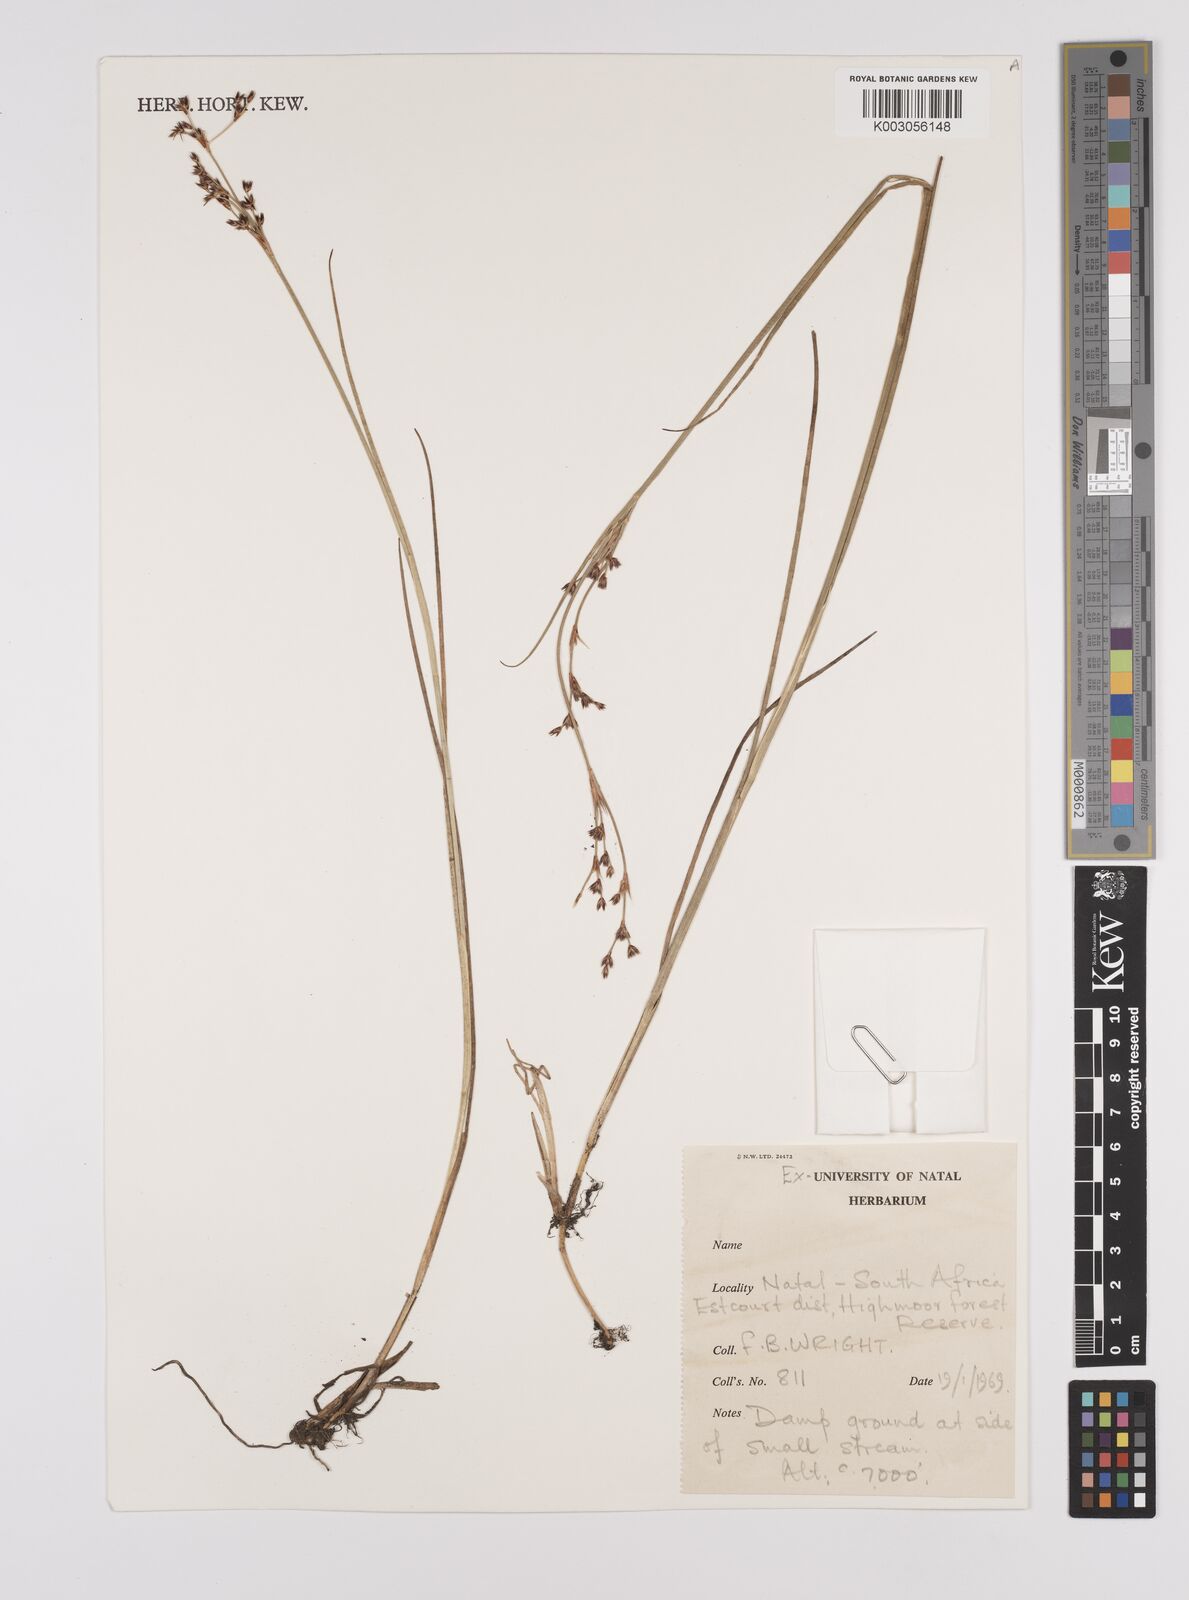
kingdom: Plantae
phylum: Tracheophyta
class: Liliopsida
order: Poales
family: Juncaceae
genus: Juncus
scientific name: Juncus
